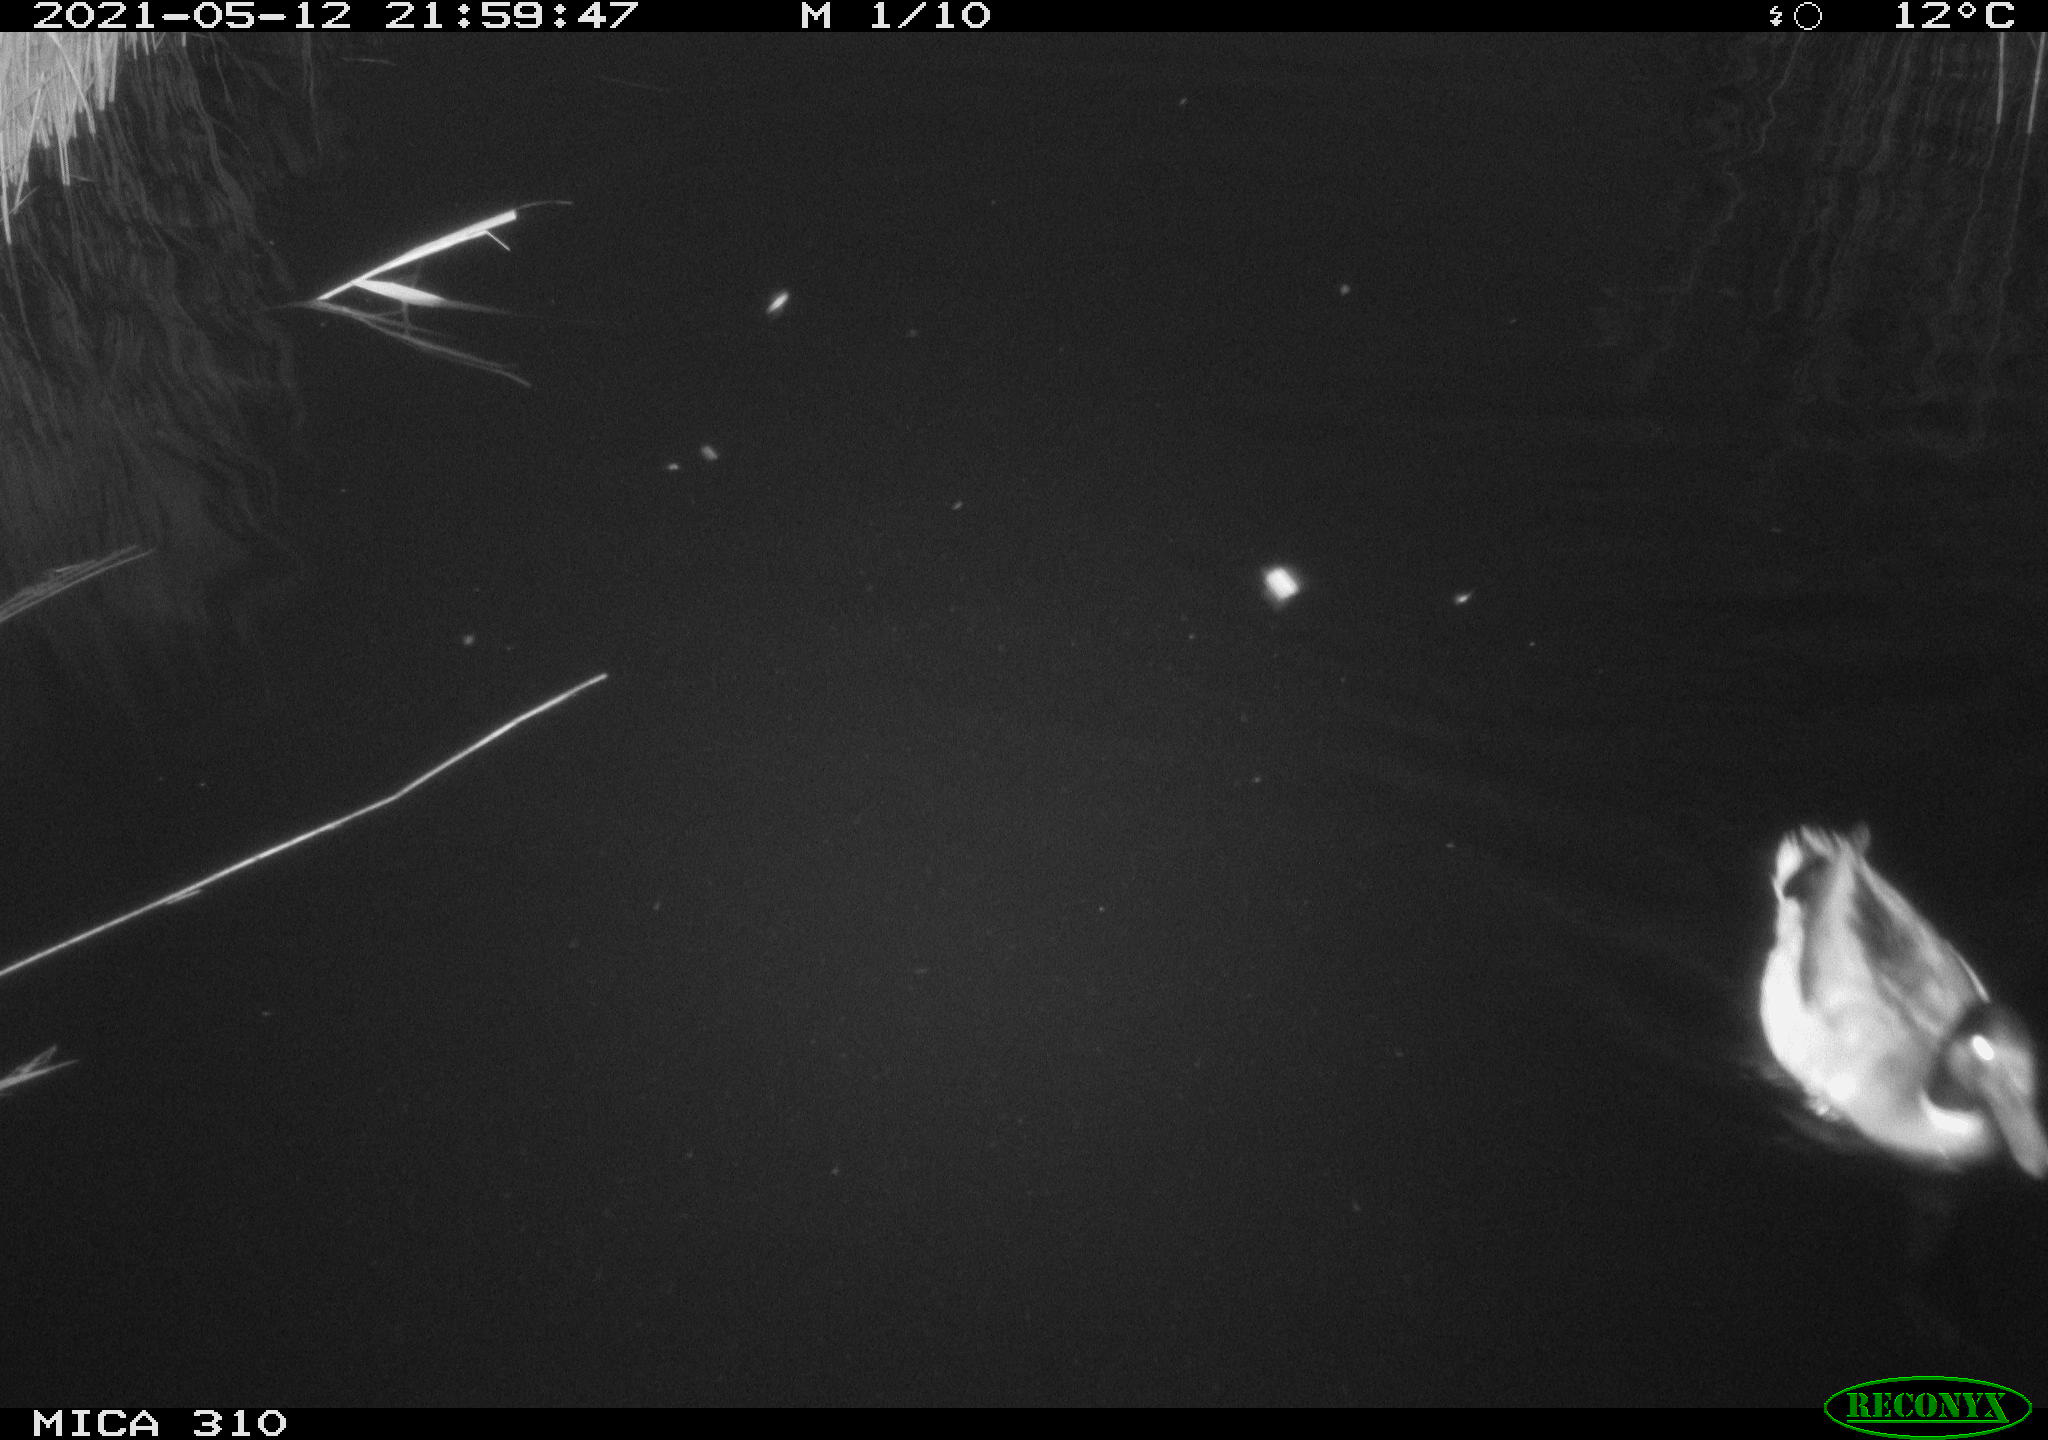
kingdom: Animalia
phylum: Chordata
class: Aves
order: Anseriformes
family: Anatidae
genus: Anas
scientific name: Anas platyrhynchos
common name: Mallard
